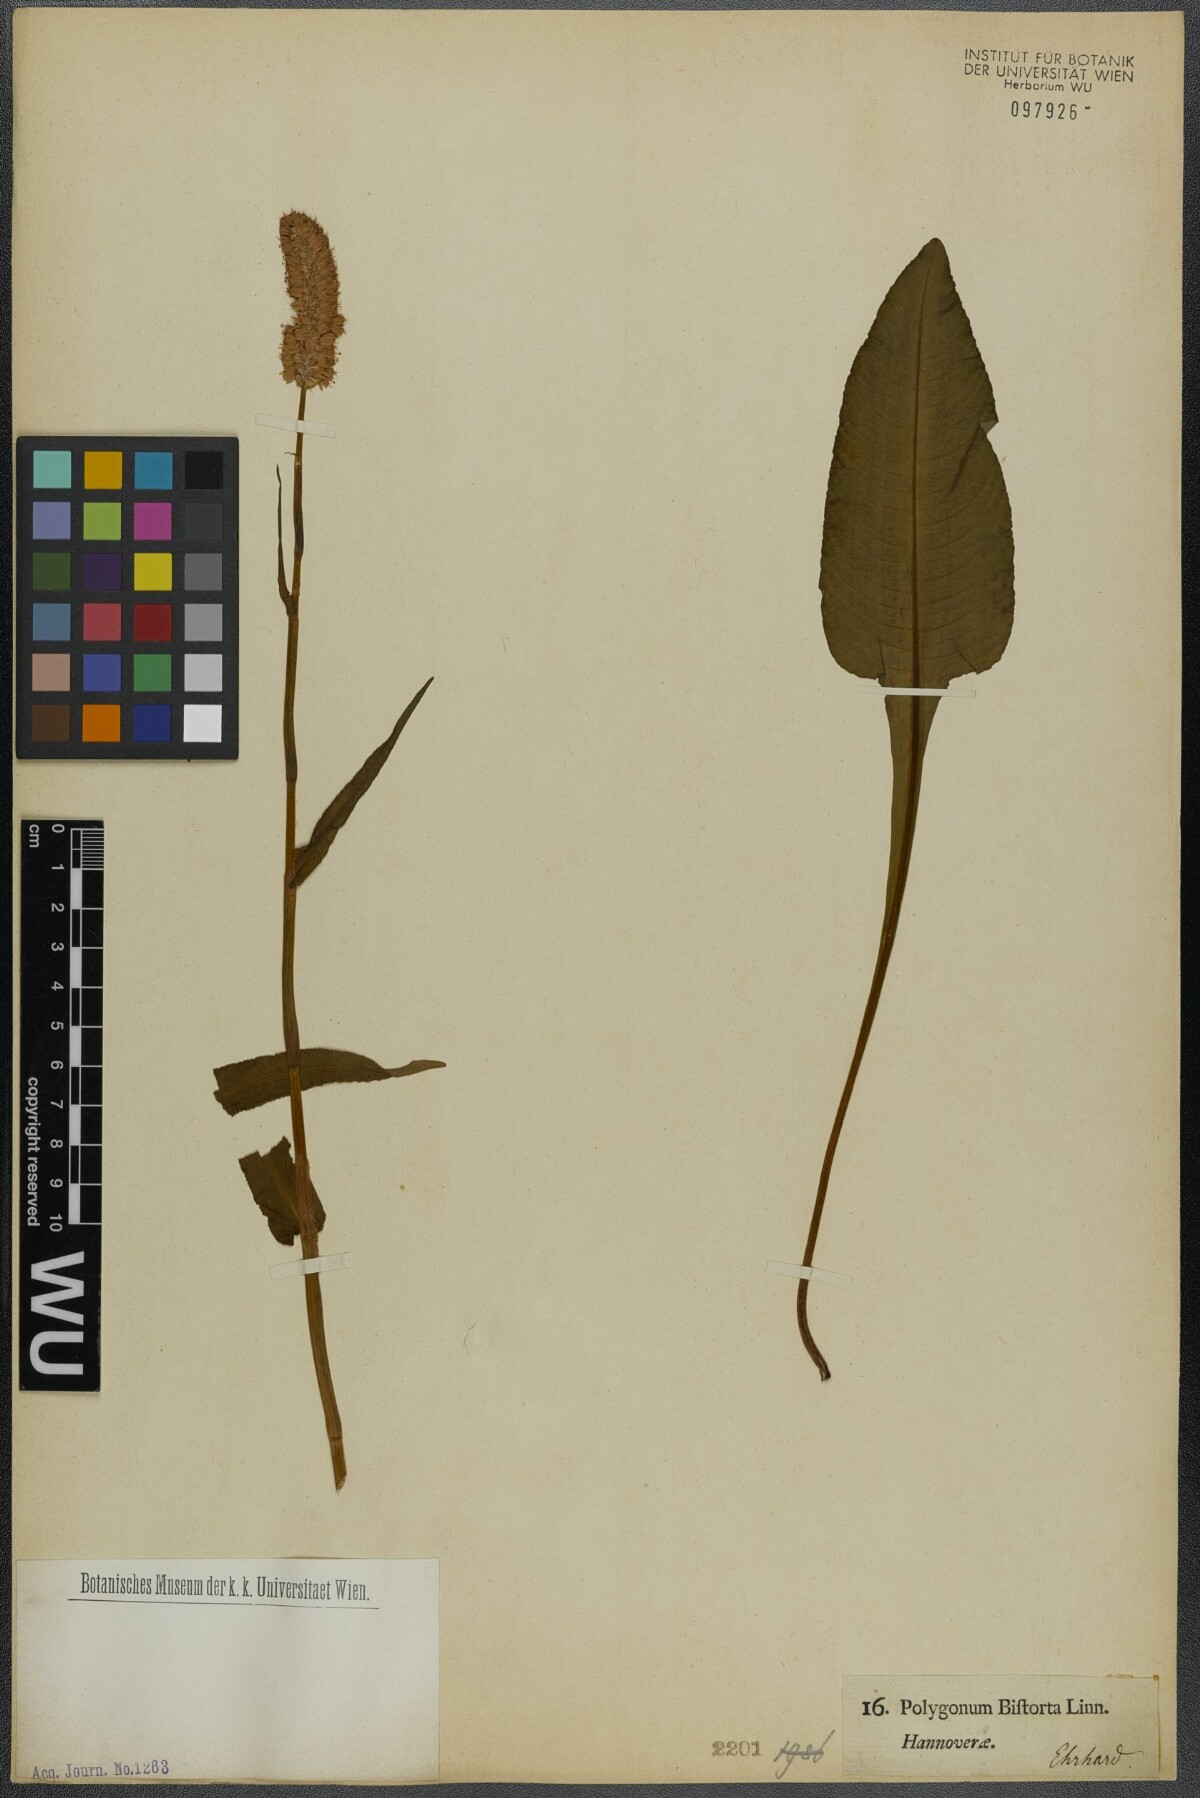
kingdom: Plantae
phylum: Tracheophyta
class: Magnoliopsida
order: Caryophyllales
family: Polygonaceae
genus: Bistorta
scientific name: Bistorta officinalis
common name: Common bistort
